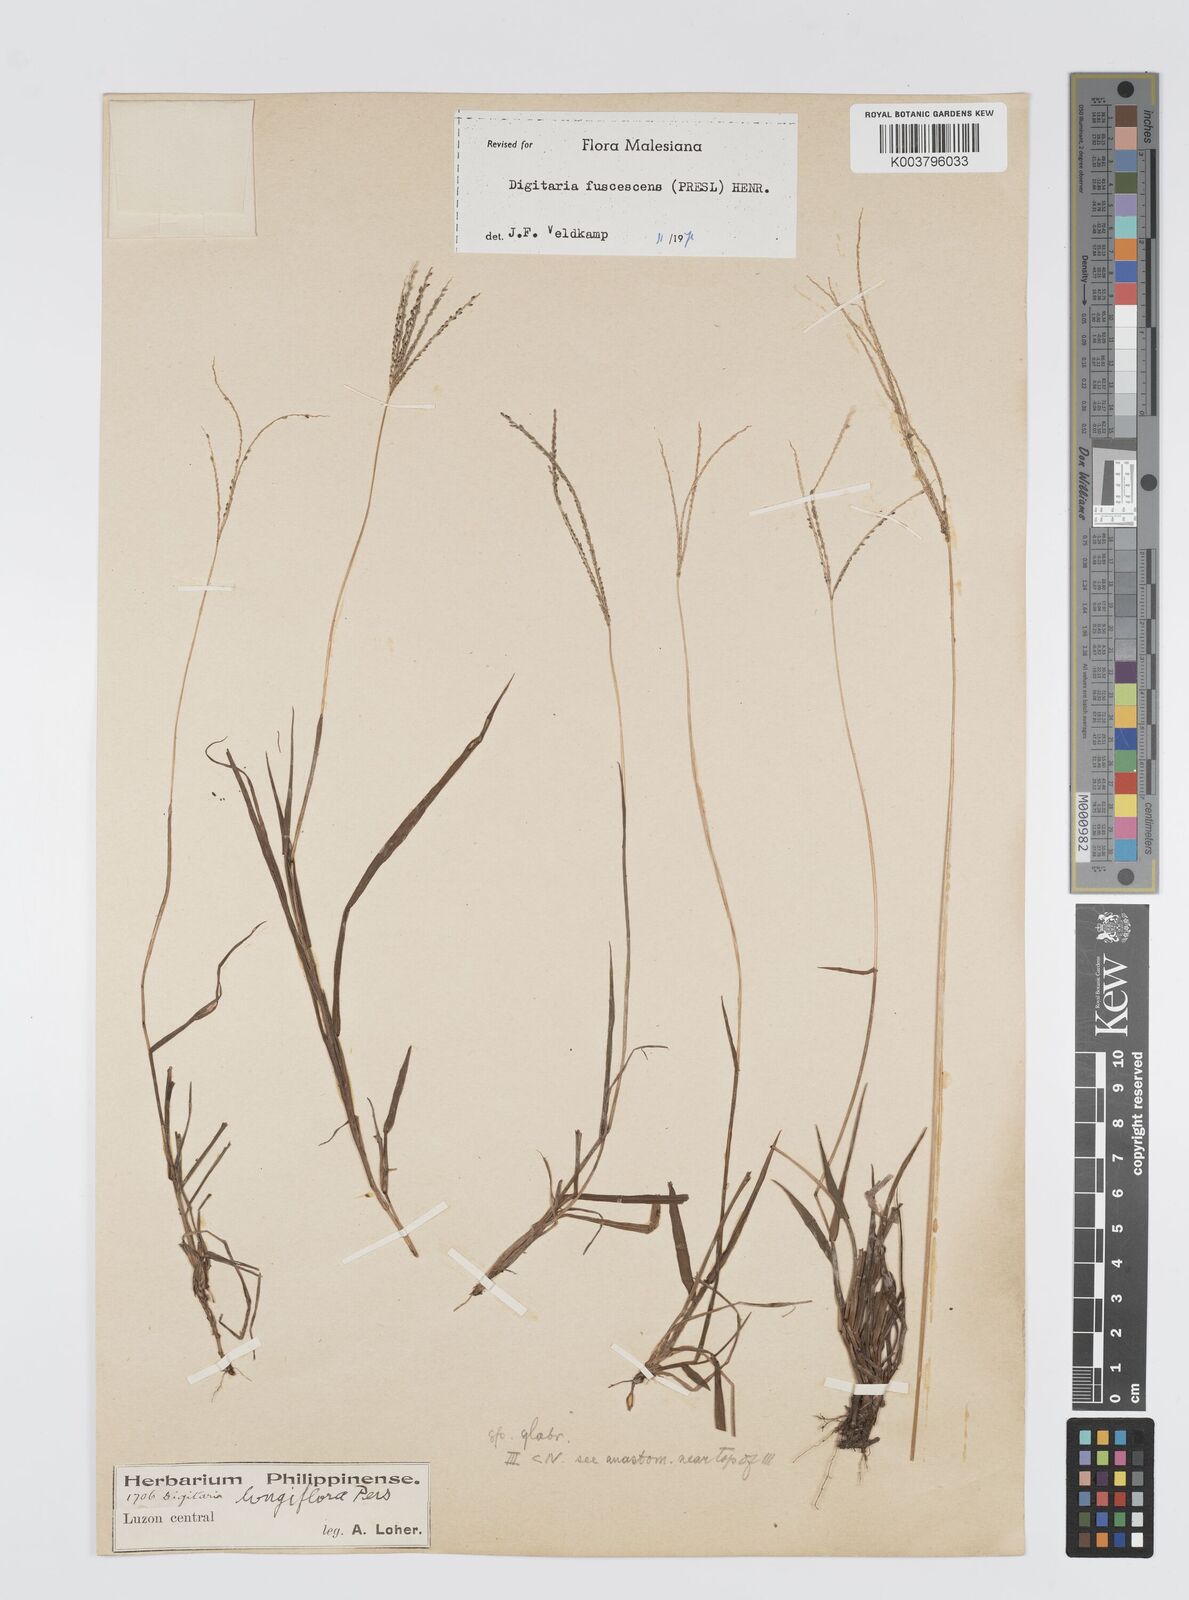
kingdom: Plantae
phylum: Tracheophyta
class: Liliopsida
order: Poales
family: Poaceae
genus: Digitaria
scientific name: Digitaria ciliaris
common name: Tropical finger-grass
